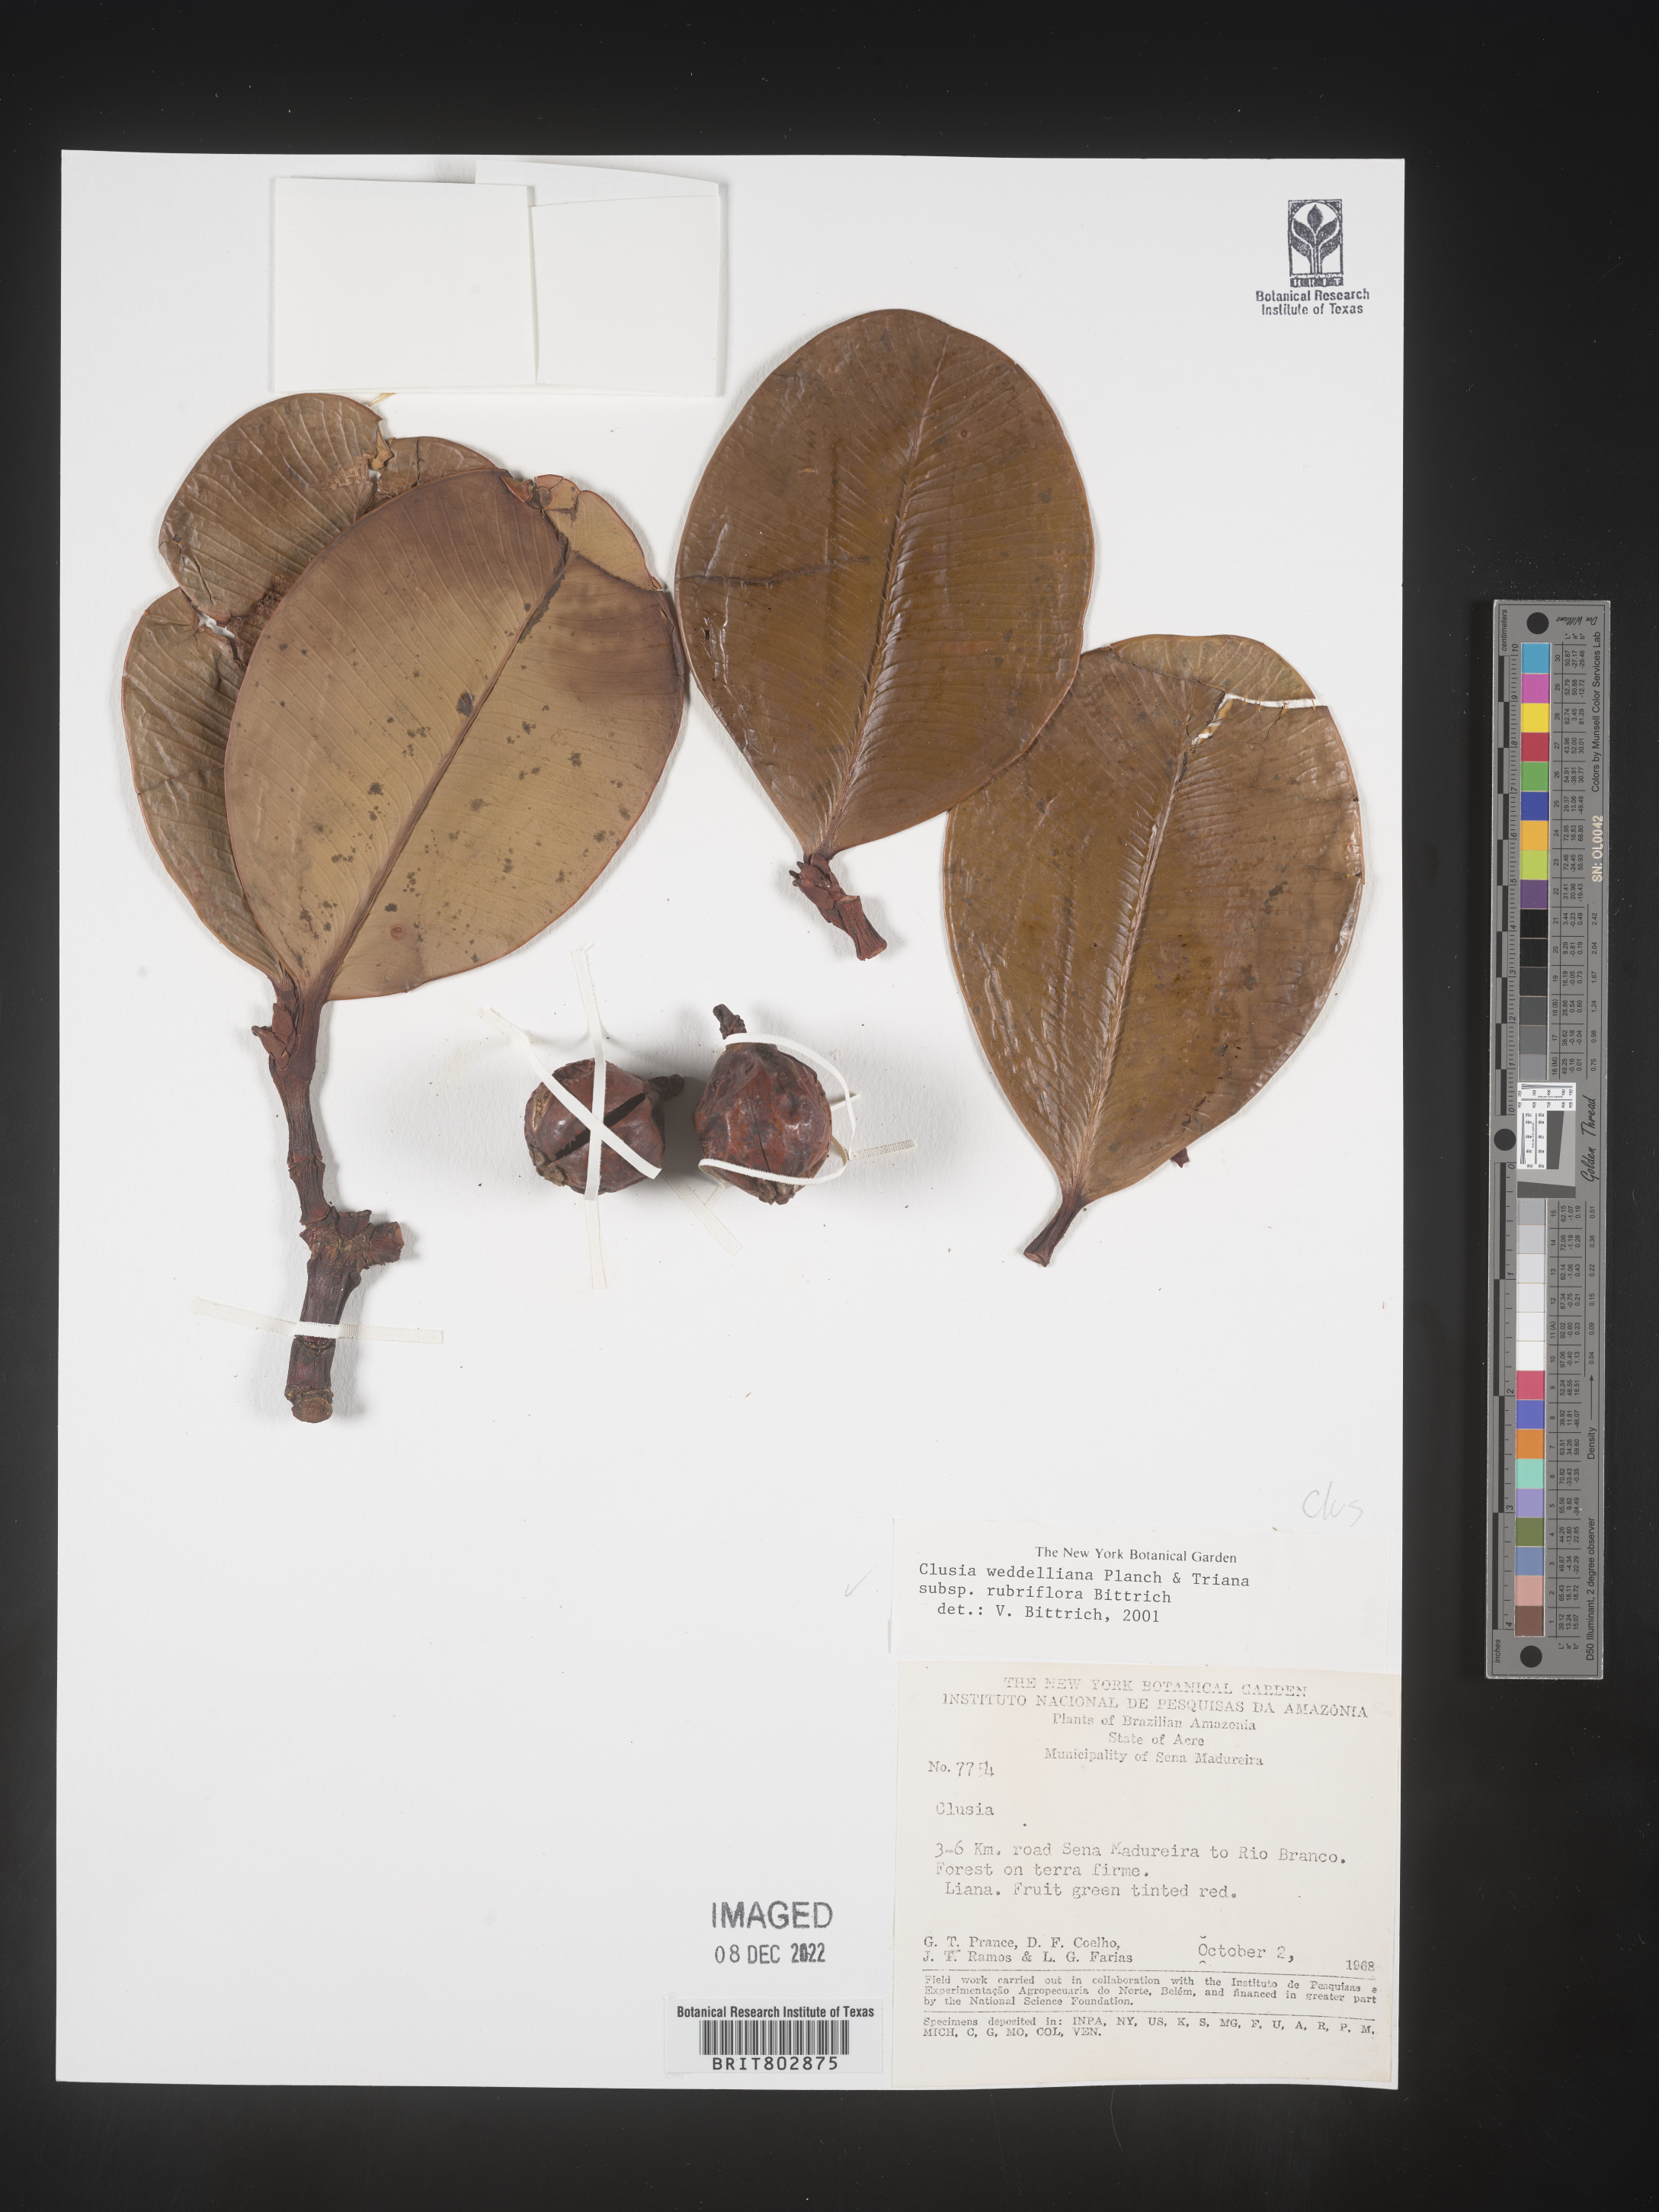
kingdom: Plantae
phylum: Tracheophyta
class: Magnoliopsida
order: Malpighiales
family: Clusiaceae
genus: Clusia
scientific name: Clusia
